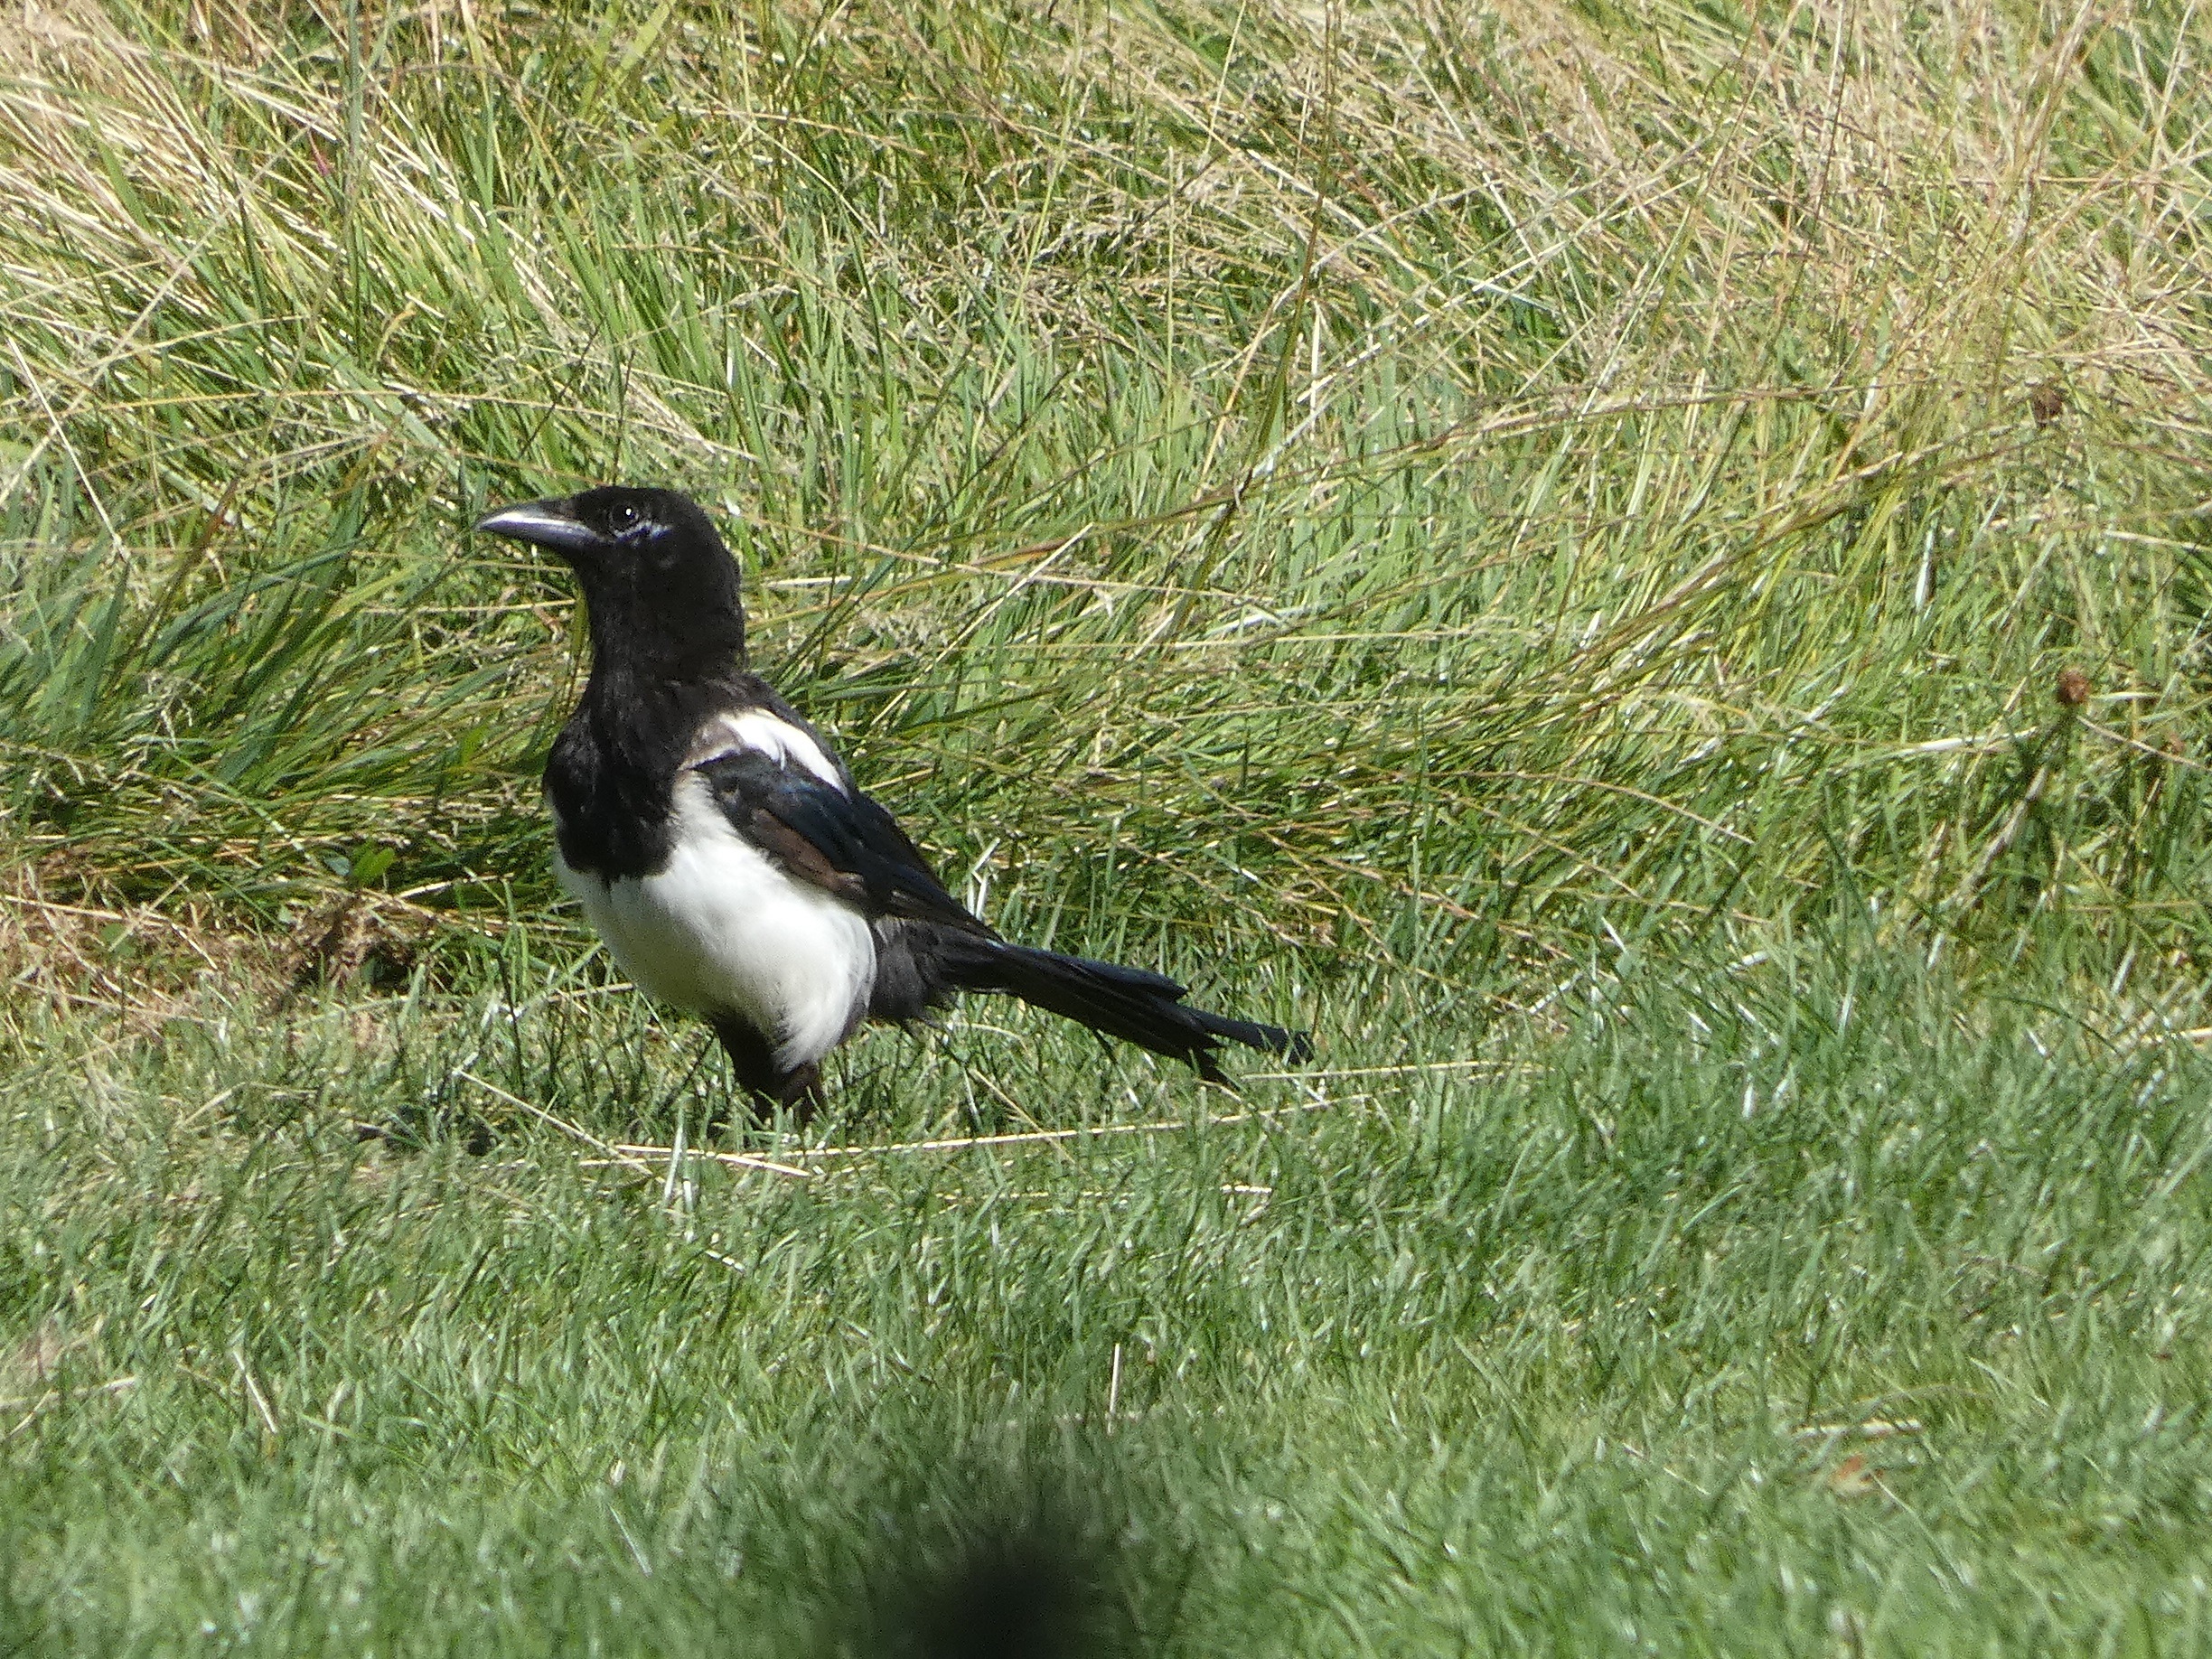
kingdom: Animalia
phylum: Chordata
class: Aves
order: Passeriformes
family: Corvidae
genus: Pica
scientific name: Pica pica
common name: Husskade
